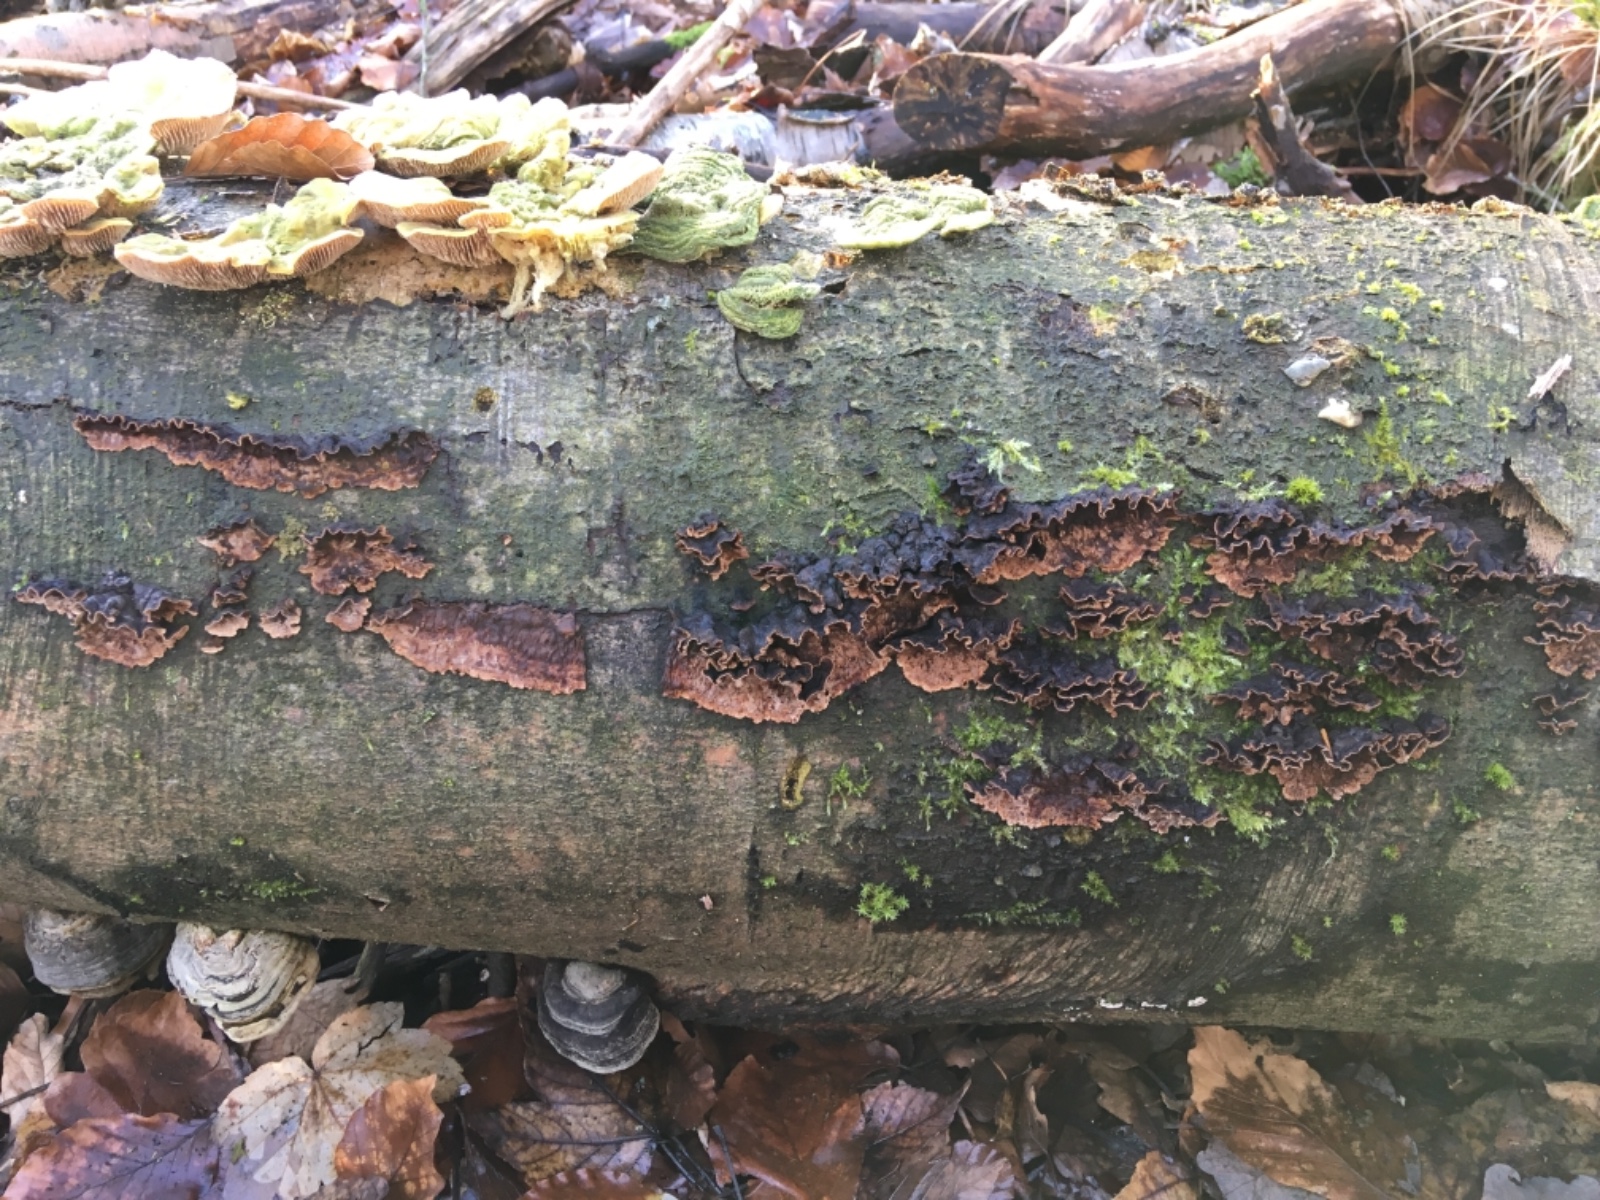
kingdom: Fungi
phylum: Basidiomycota
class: Agaricomycetes
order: Russulales
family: Hericiaceae
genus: Laxitextum
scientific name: Laxitextum bicolor
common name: tvefarvet filtskind
